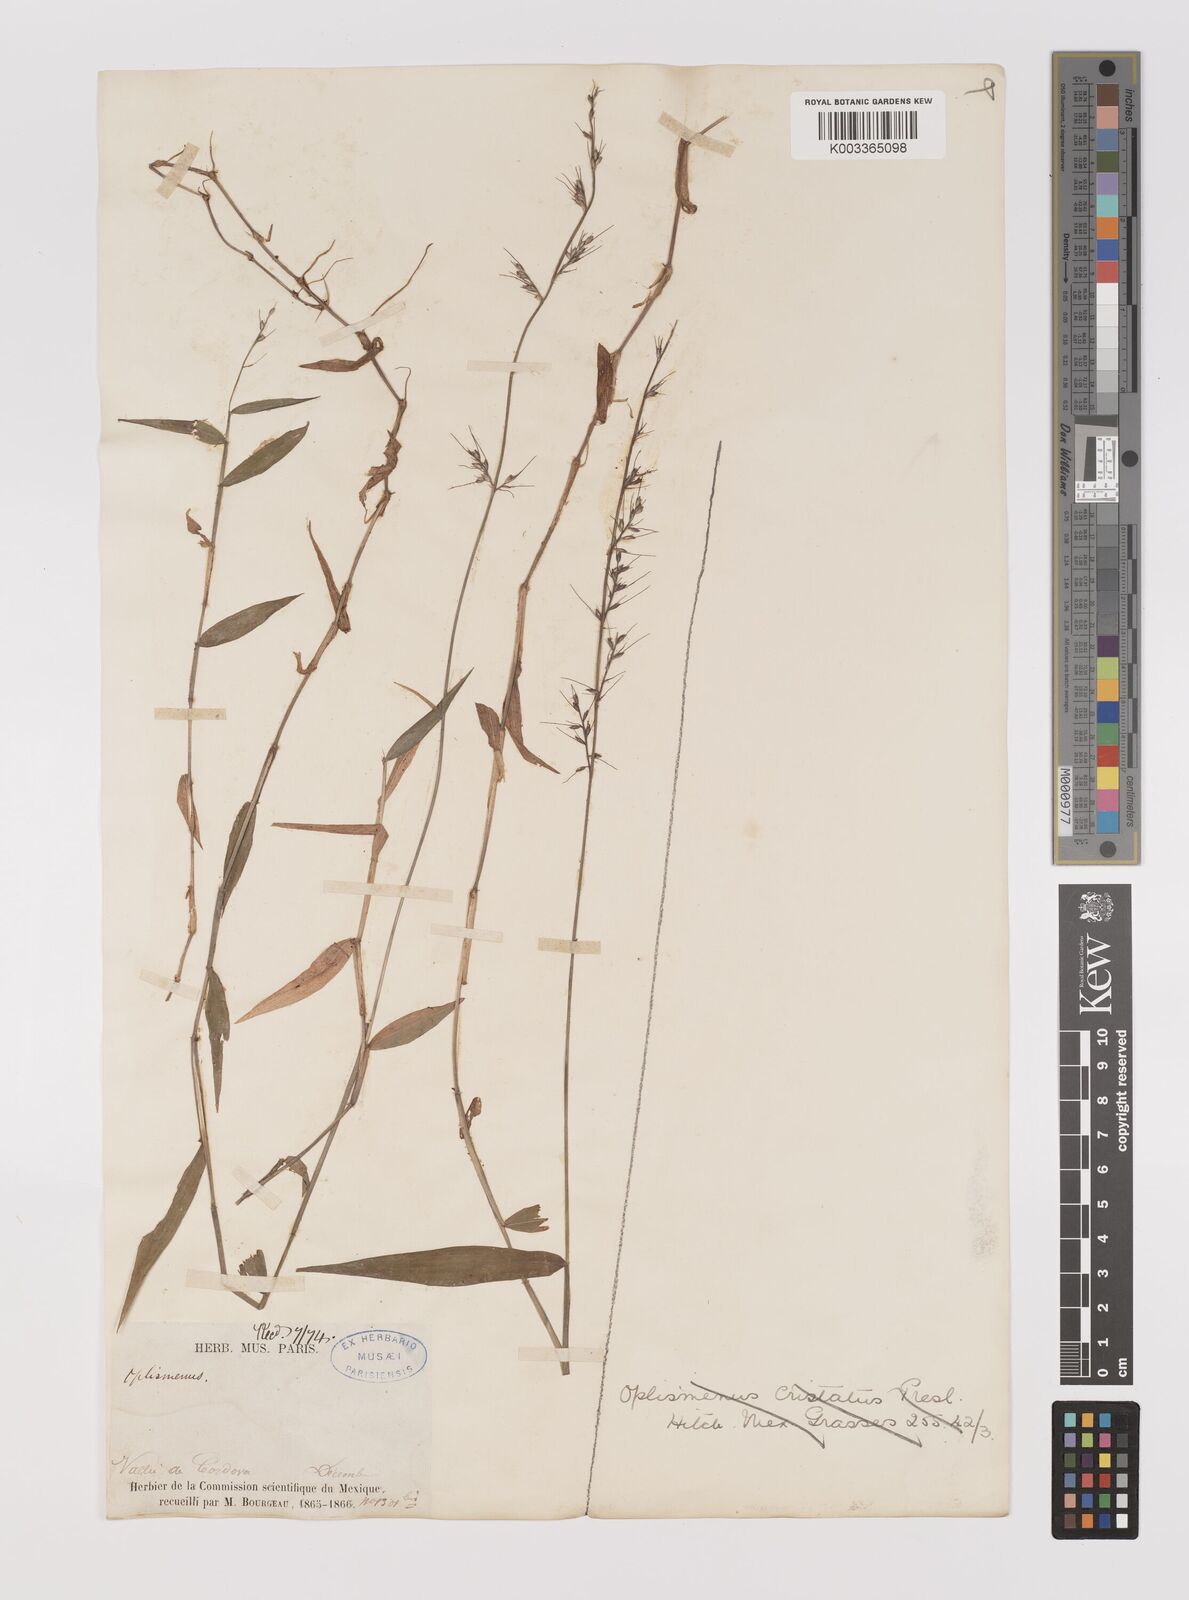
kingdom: Plantae
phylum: Tracheophyta
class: Liliopsida
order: Poales
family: Poaceae
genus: Oplismenus
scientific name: Oplismenus compositus
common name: Running mountain grass
